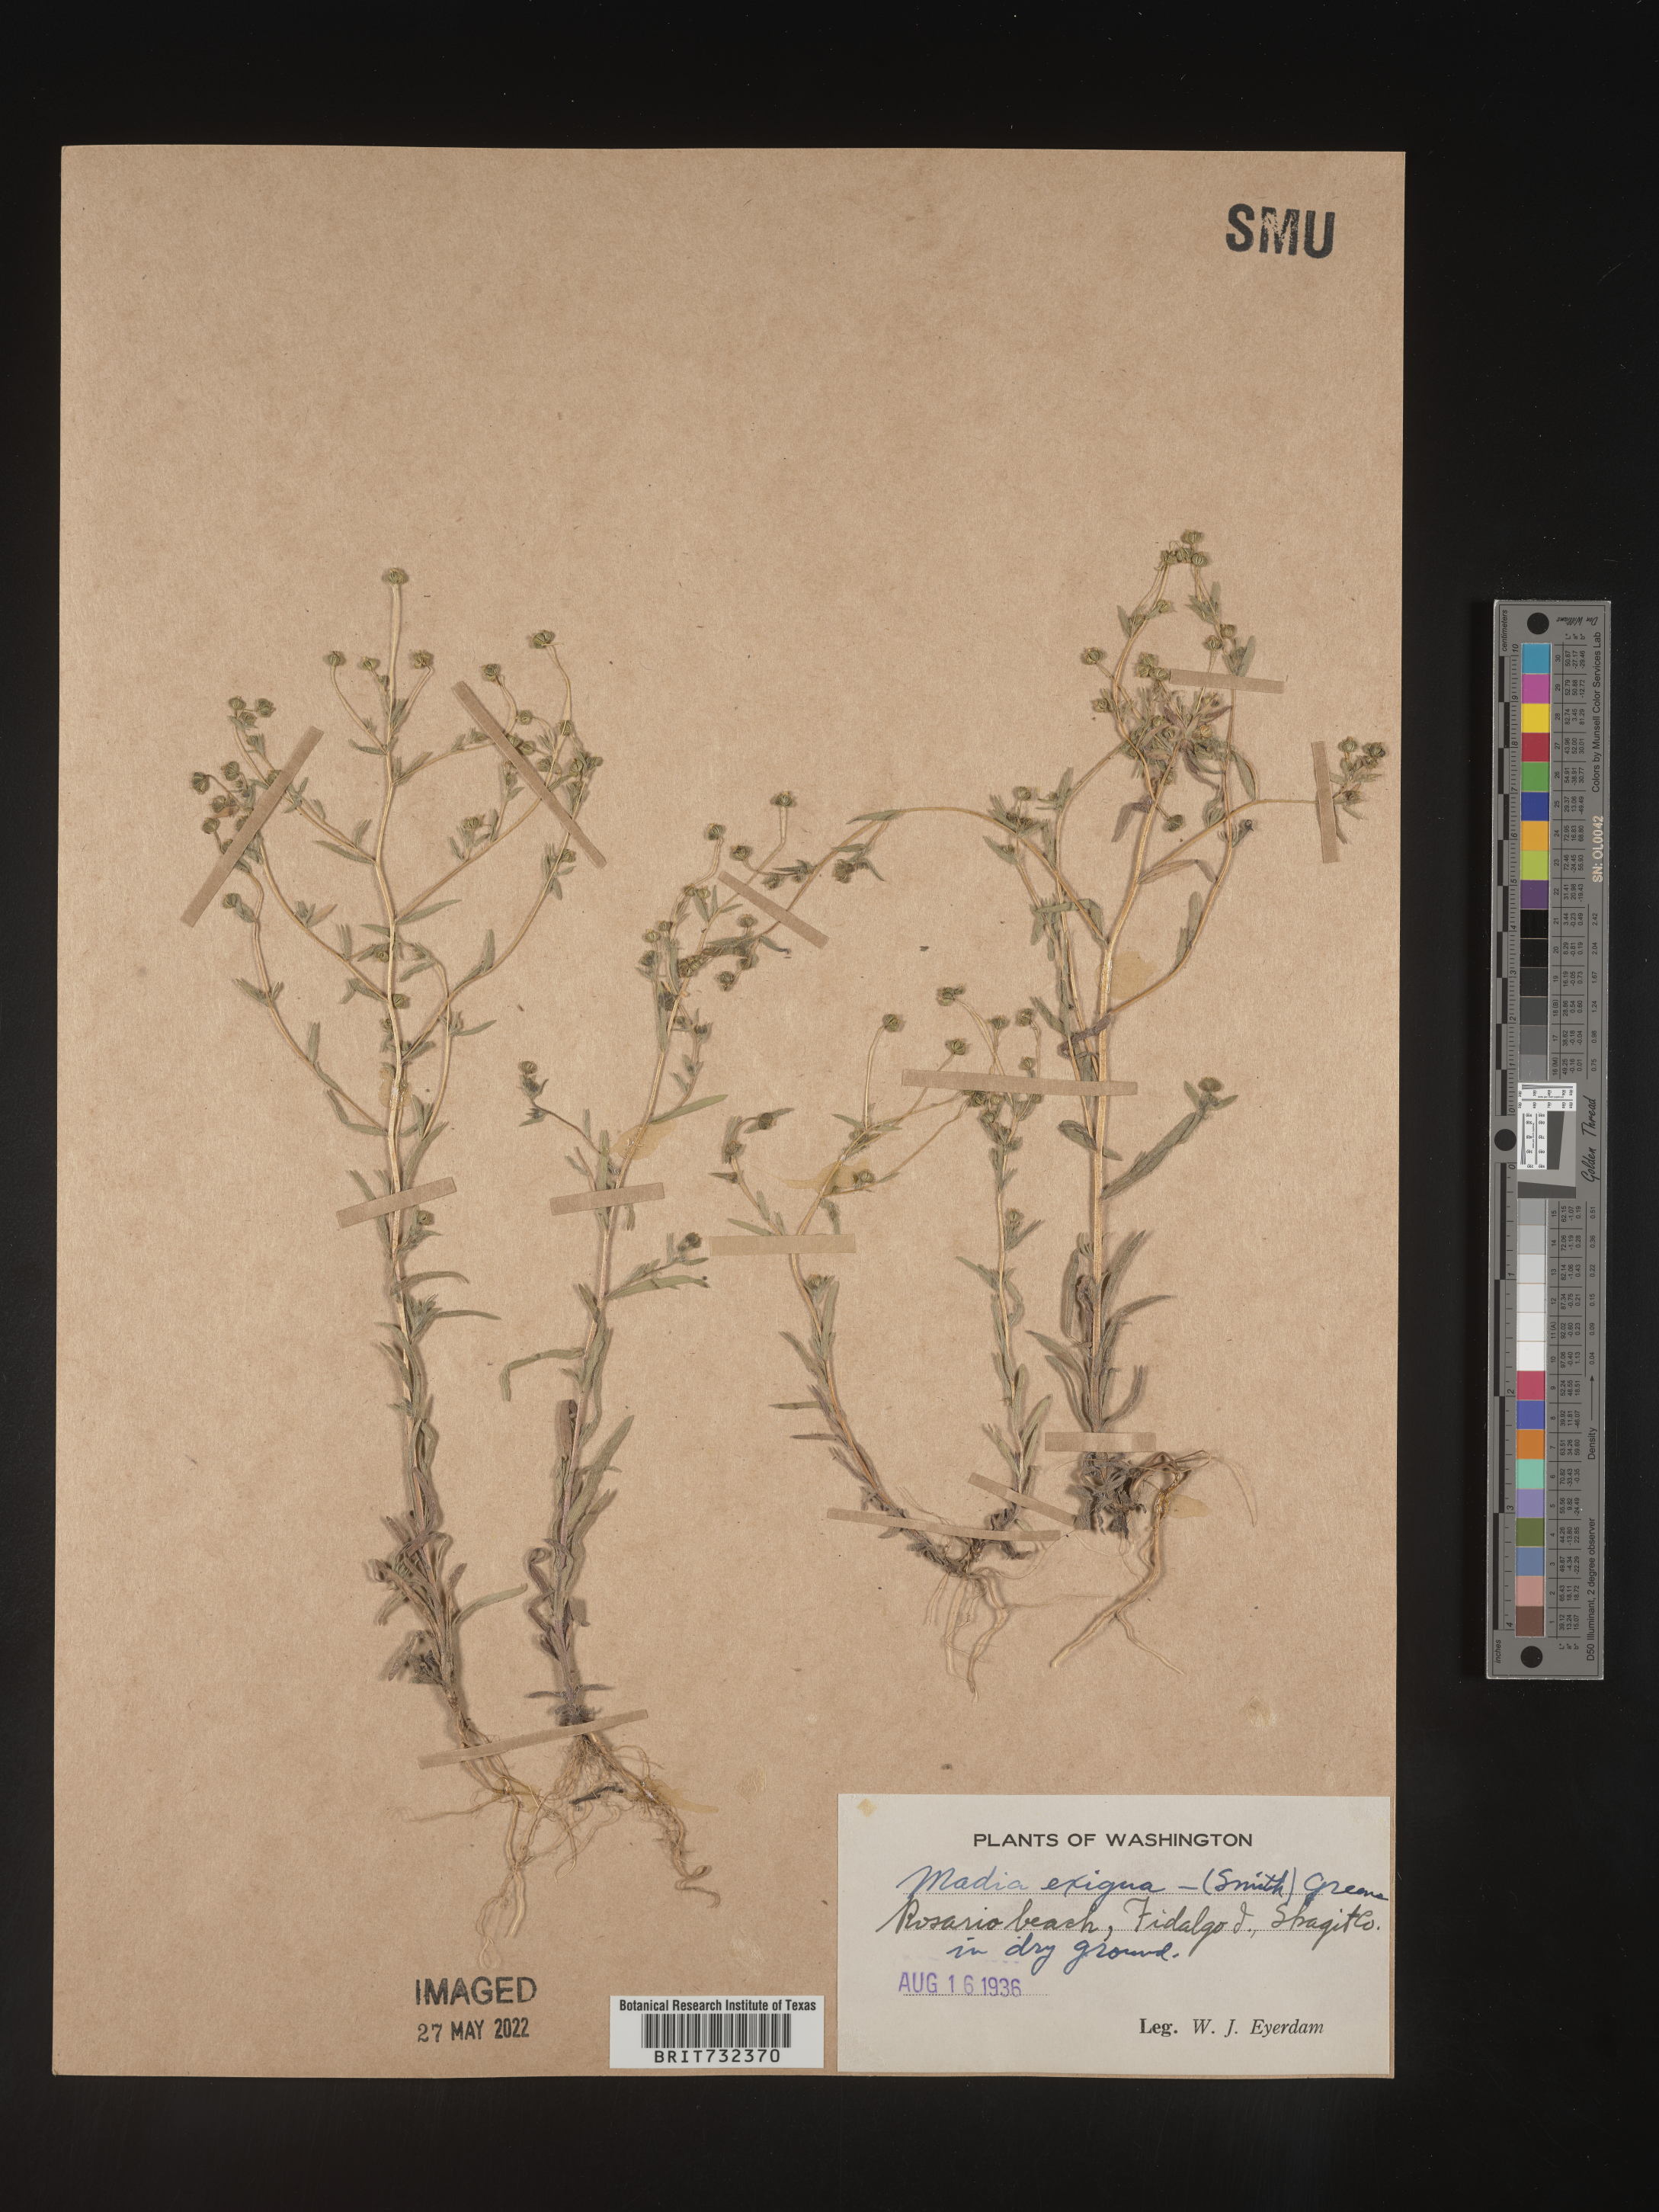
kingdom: Plantae
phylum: Tracheophyta
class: Magnoliopsida
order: Asterales
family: Asteraceae
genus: Madia
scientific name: Madia
